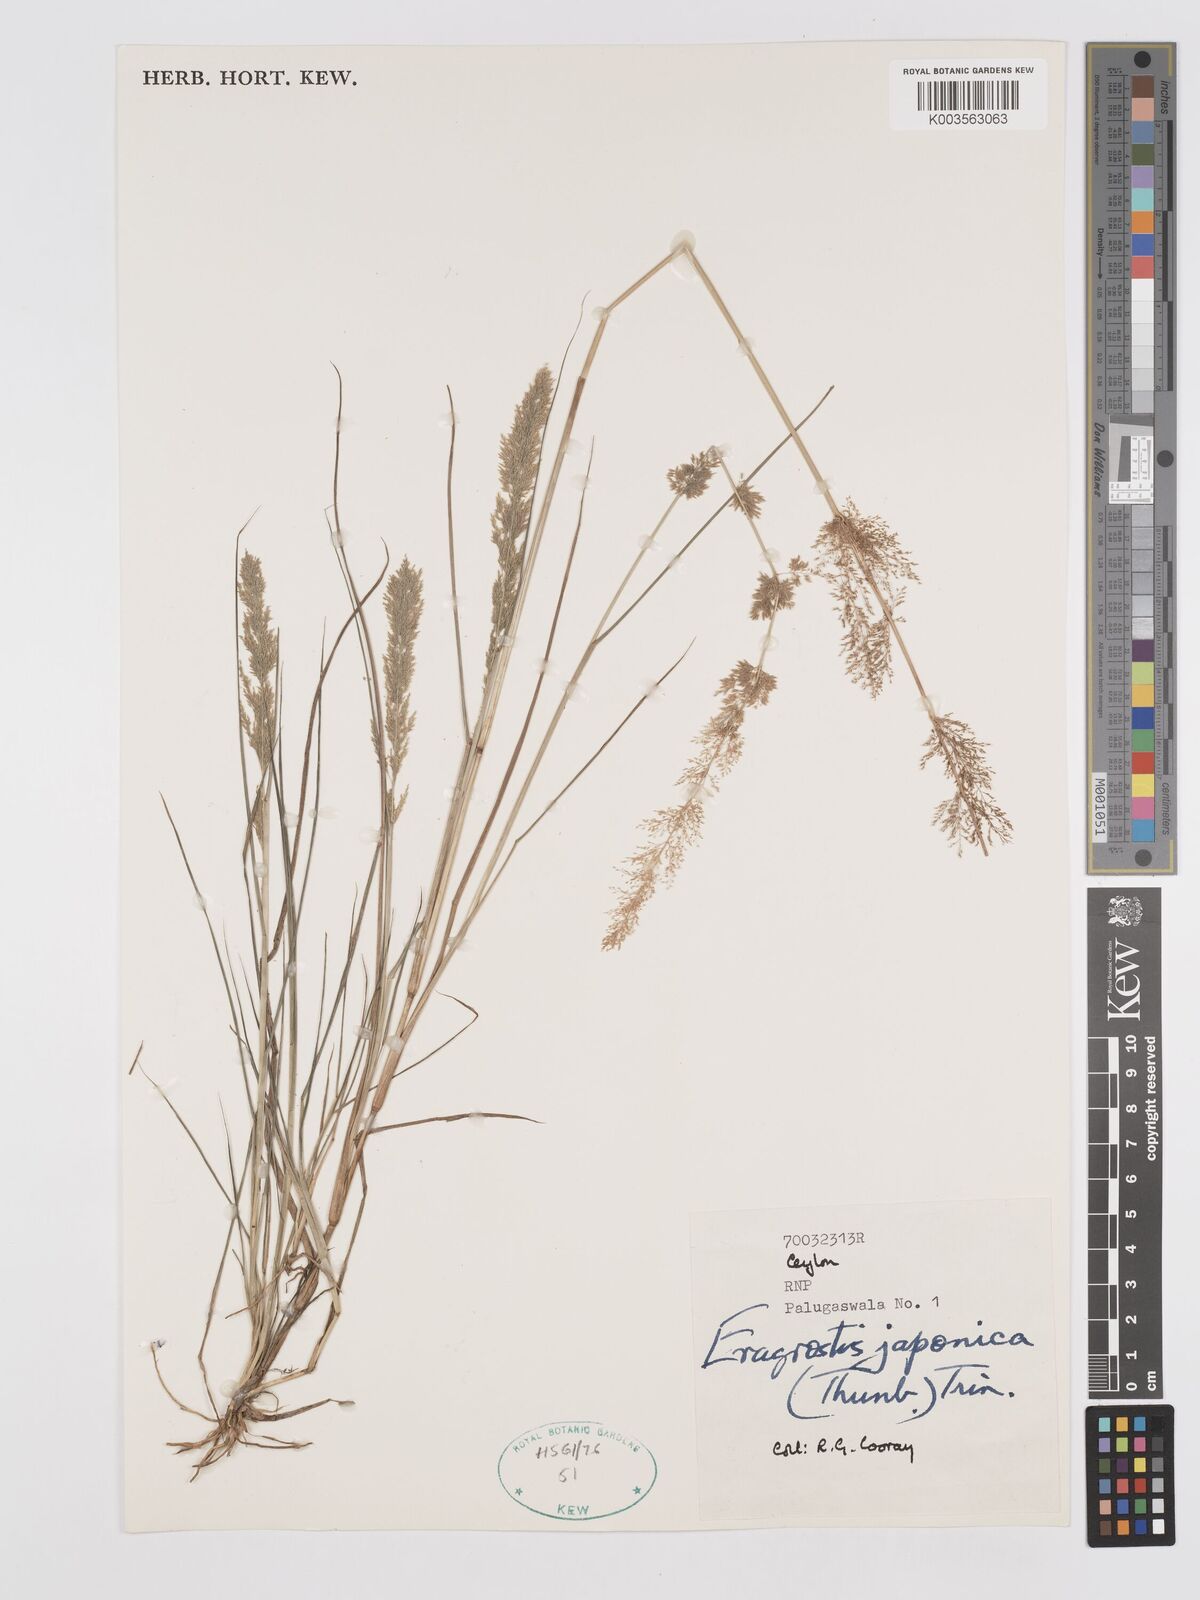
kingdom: Plantae
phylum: Tracheophyta
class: Liliopsida
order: Poales
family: Poaceae
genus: Eragrostis
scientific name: Eragrostis japonica
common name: Pond lovegrass
